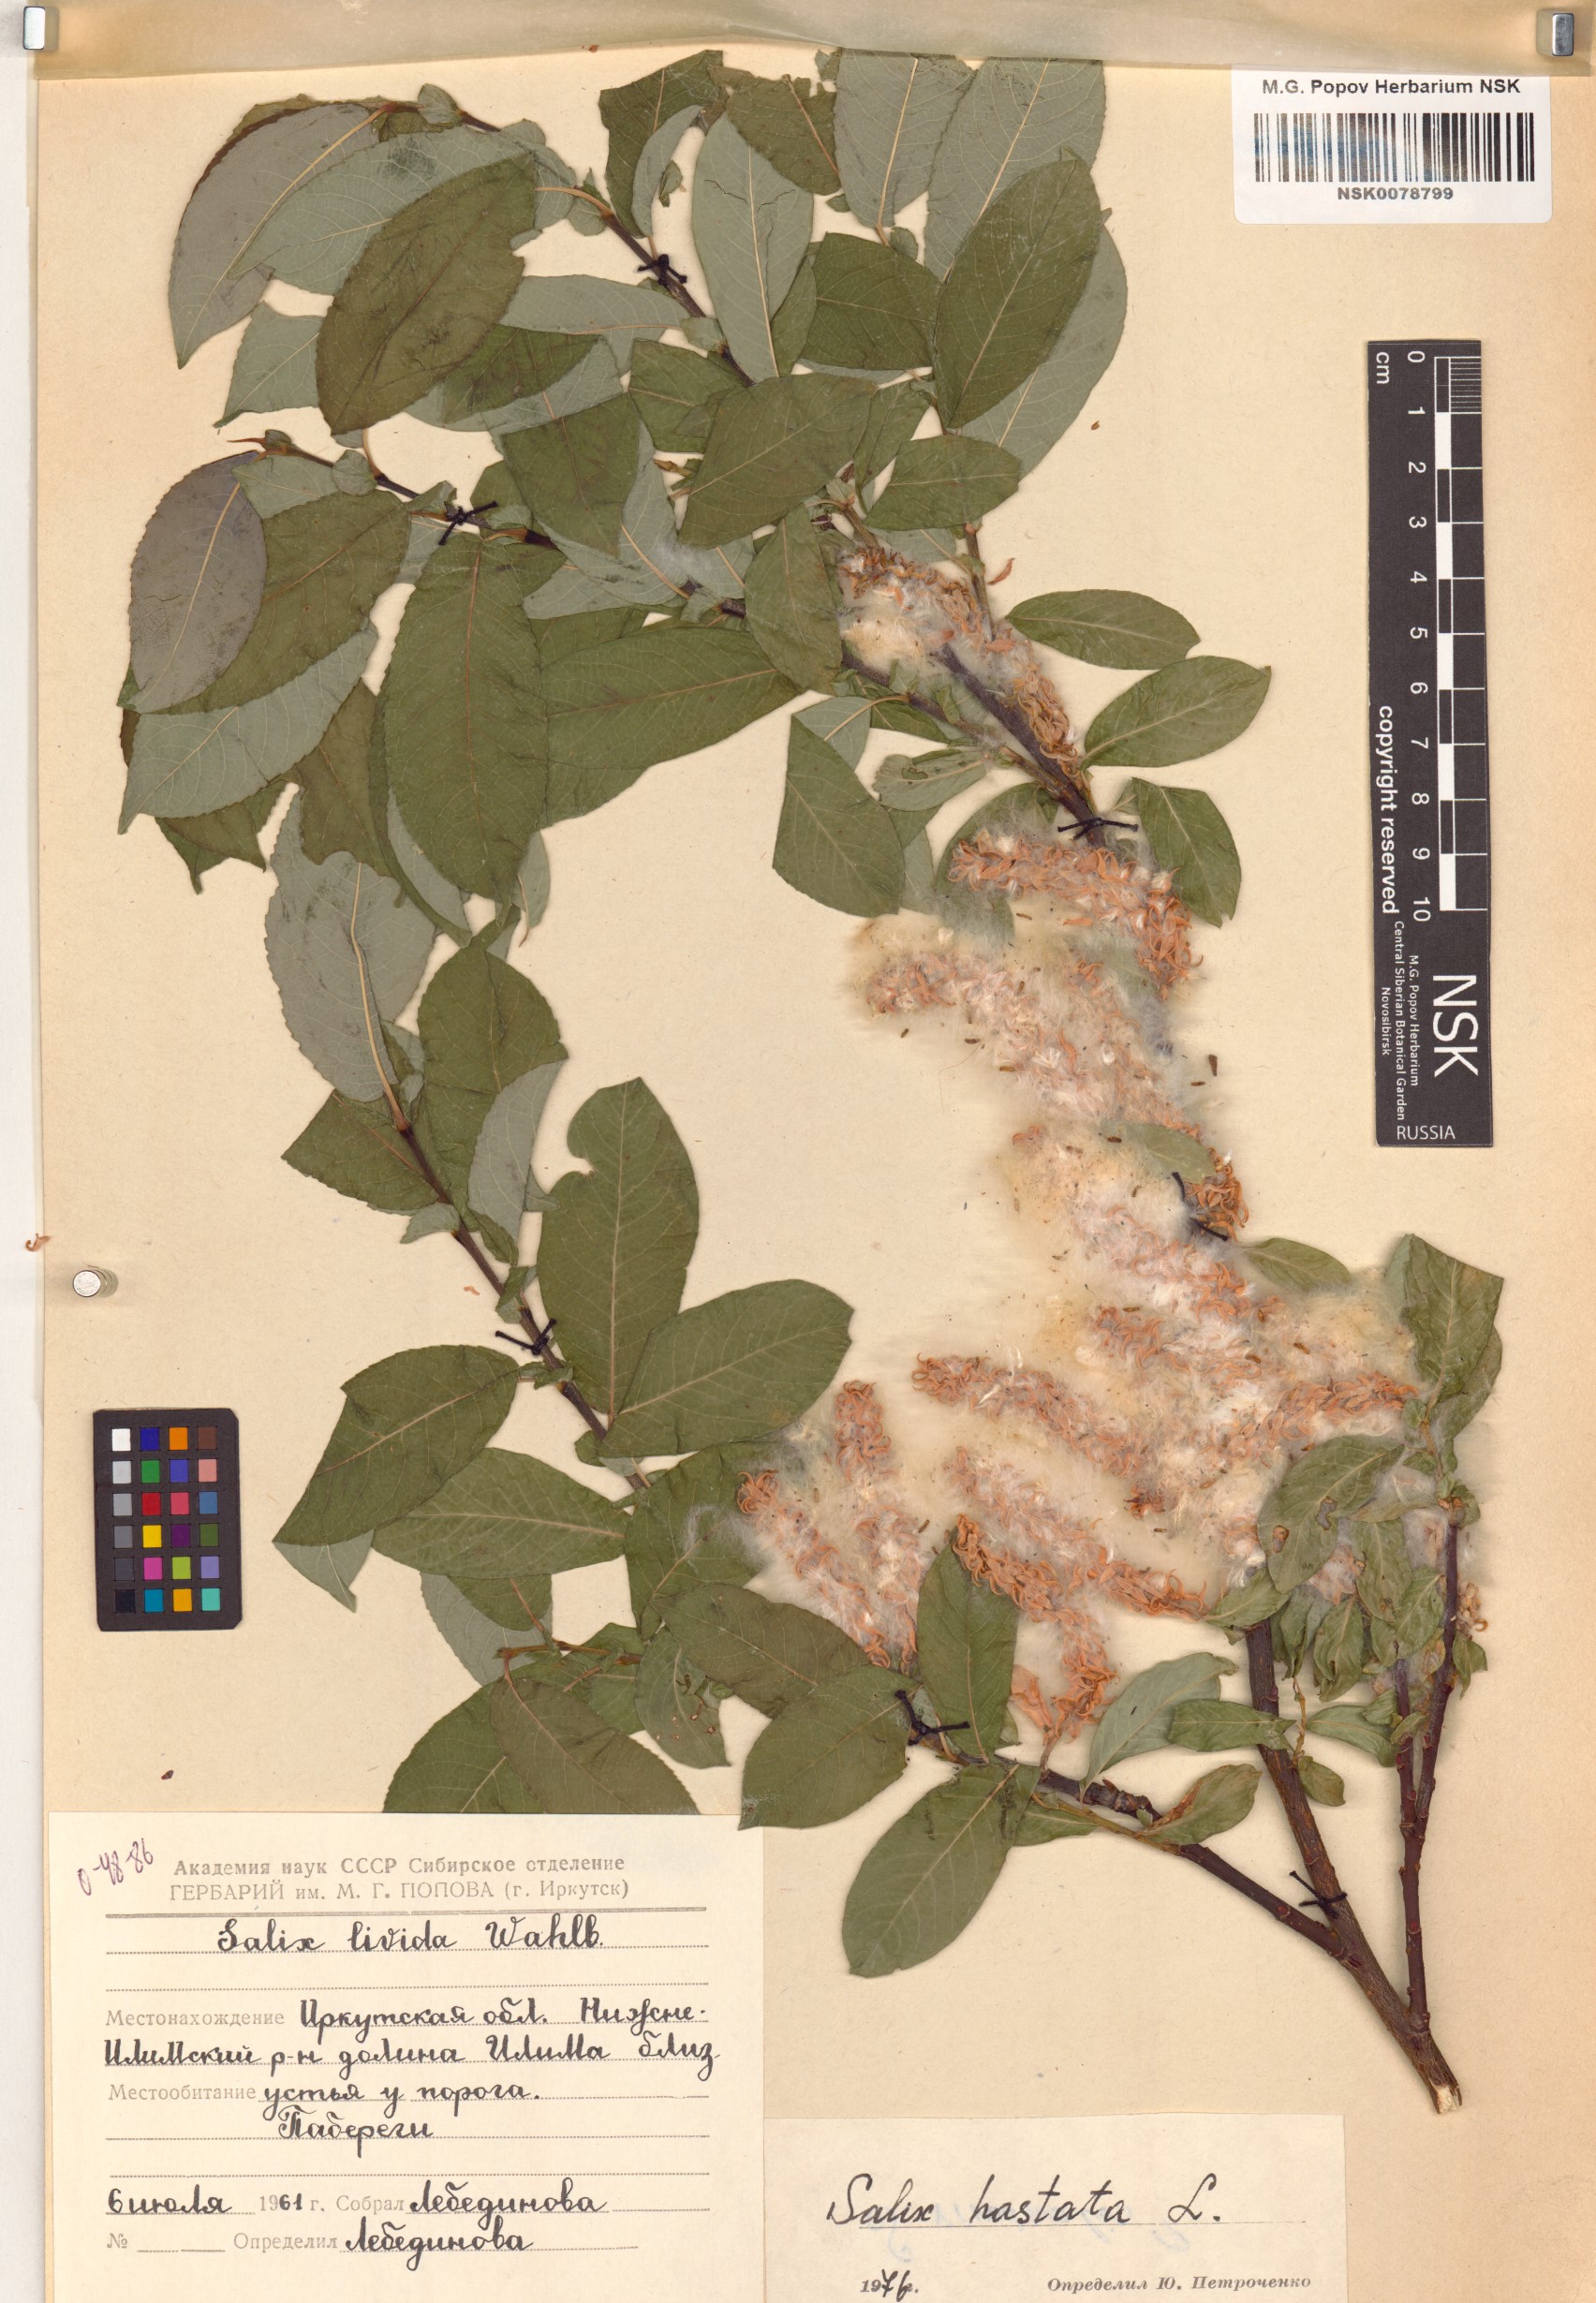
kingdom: Plantae
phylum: Tracheophyta
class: Magnoliopsida
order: Malpighiales
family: Salicaceae
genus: Salix
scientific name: Salix hastata
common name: Halberd willow
